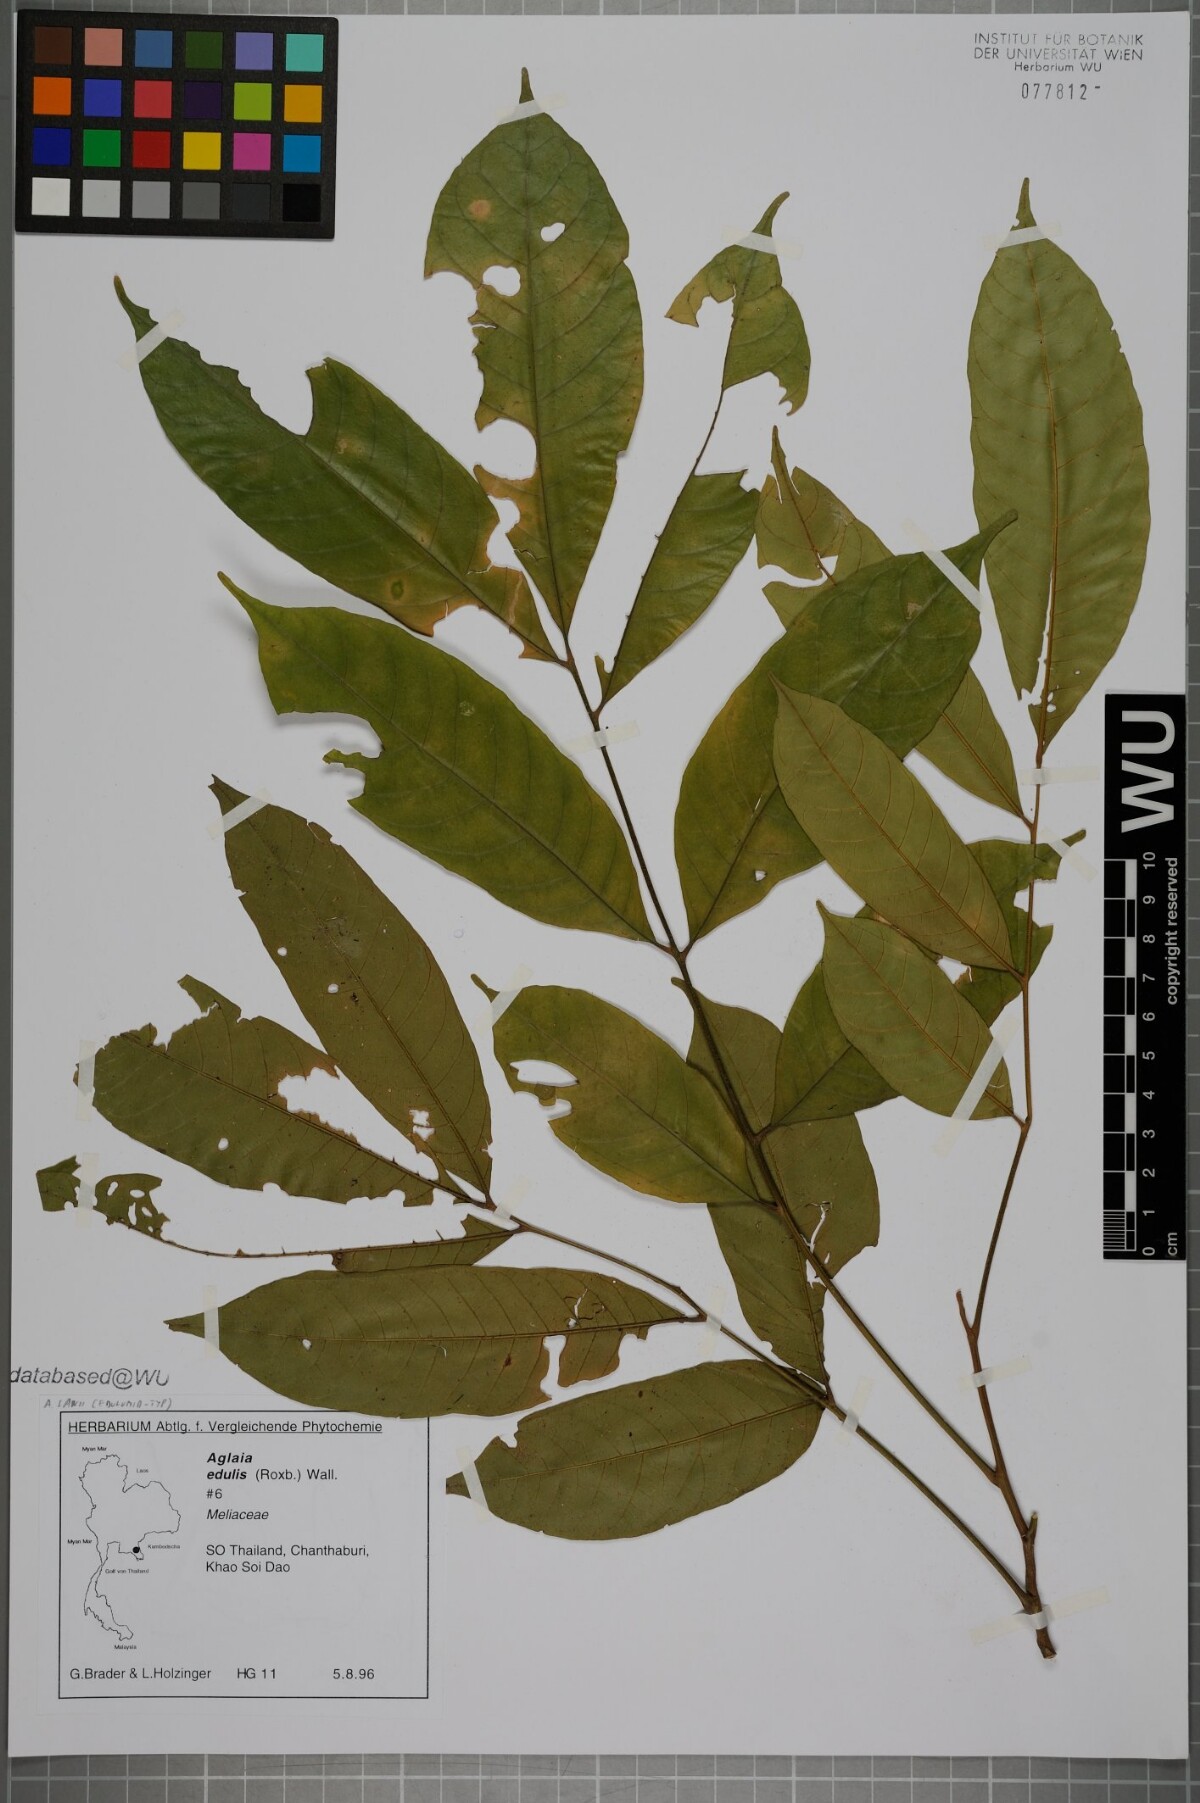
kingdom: Plantae
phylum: Tracheophyta
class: Magnoliopsida
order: Sapindales
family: Meliaceae
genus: Aglaia
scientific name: Aglaia lawii
